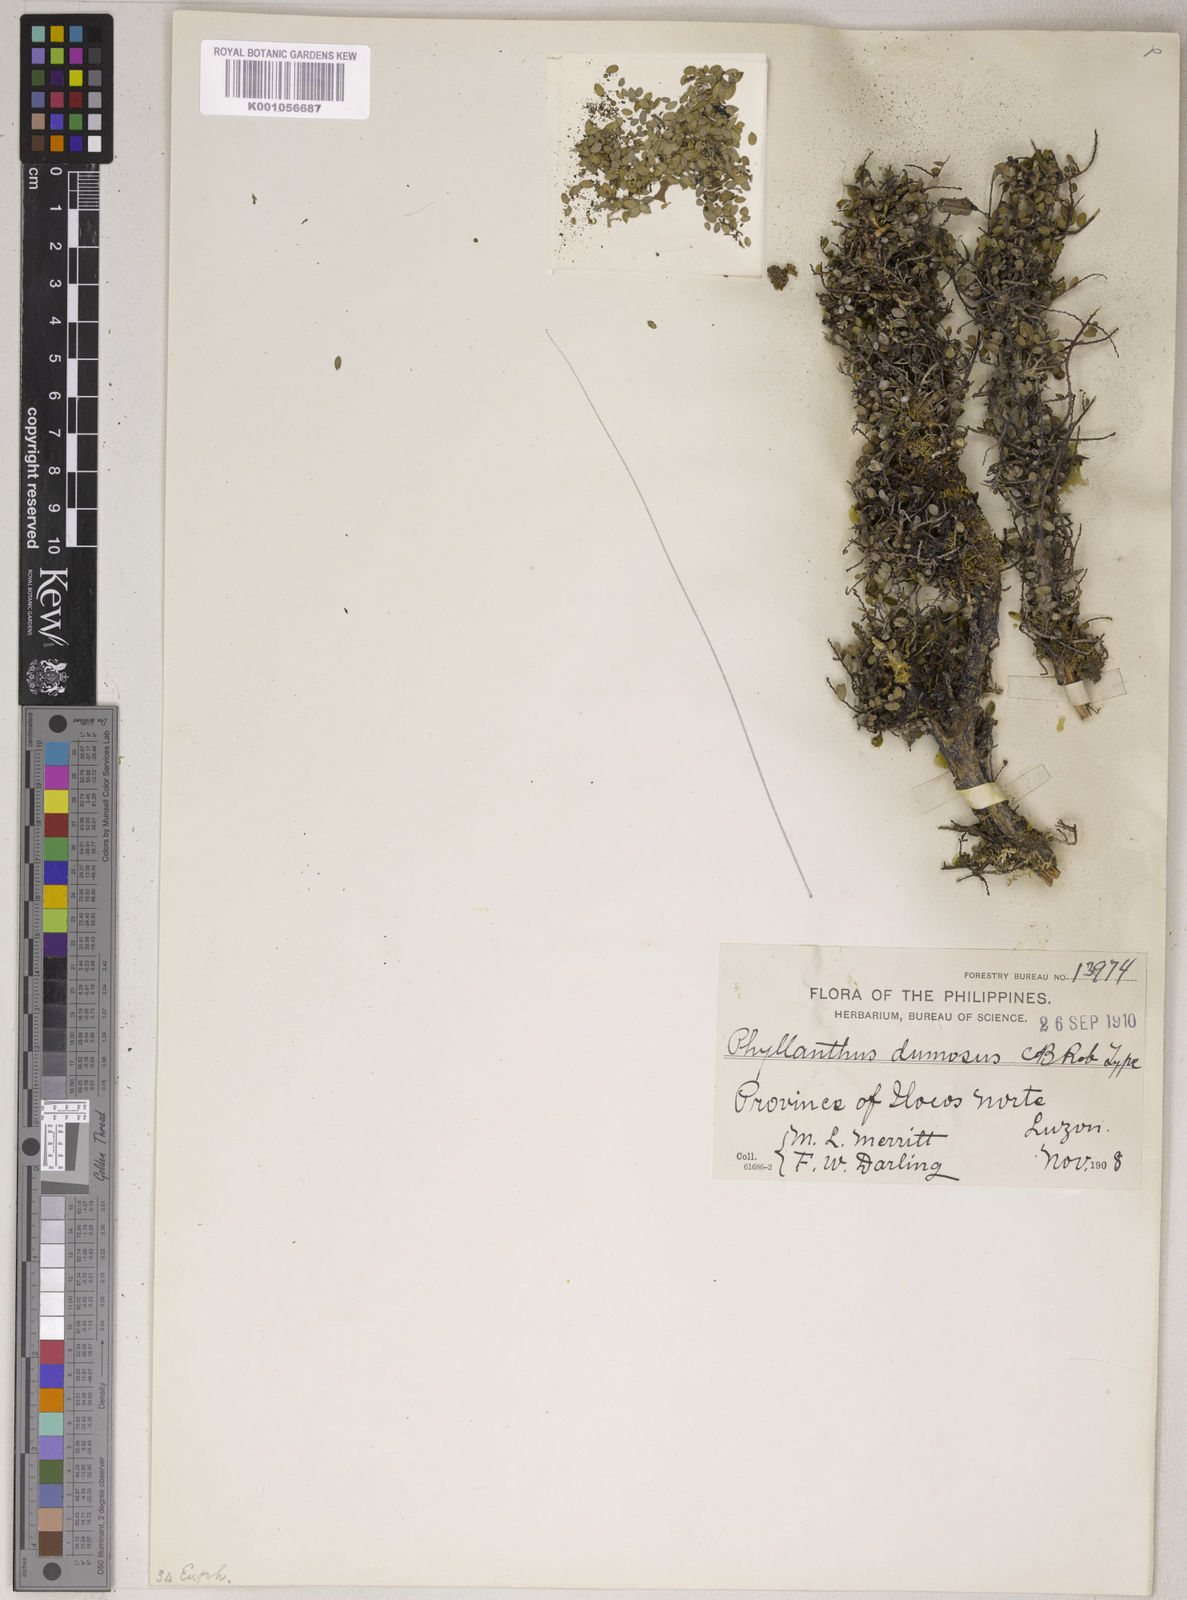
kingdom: Plantae
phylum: Tracheophyta
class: Magnoliopsida
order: Malpighiales
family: Phyllanthaceae
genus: Phyllanthus
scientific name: Phyllanthus dumosus
